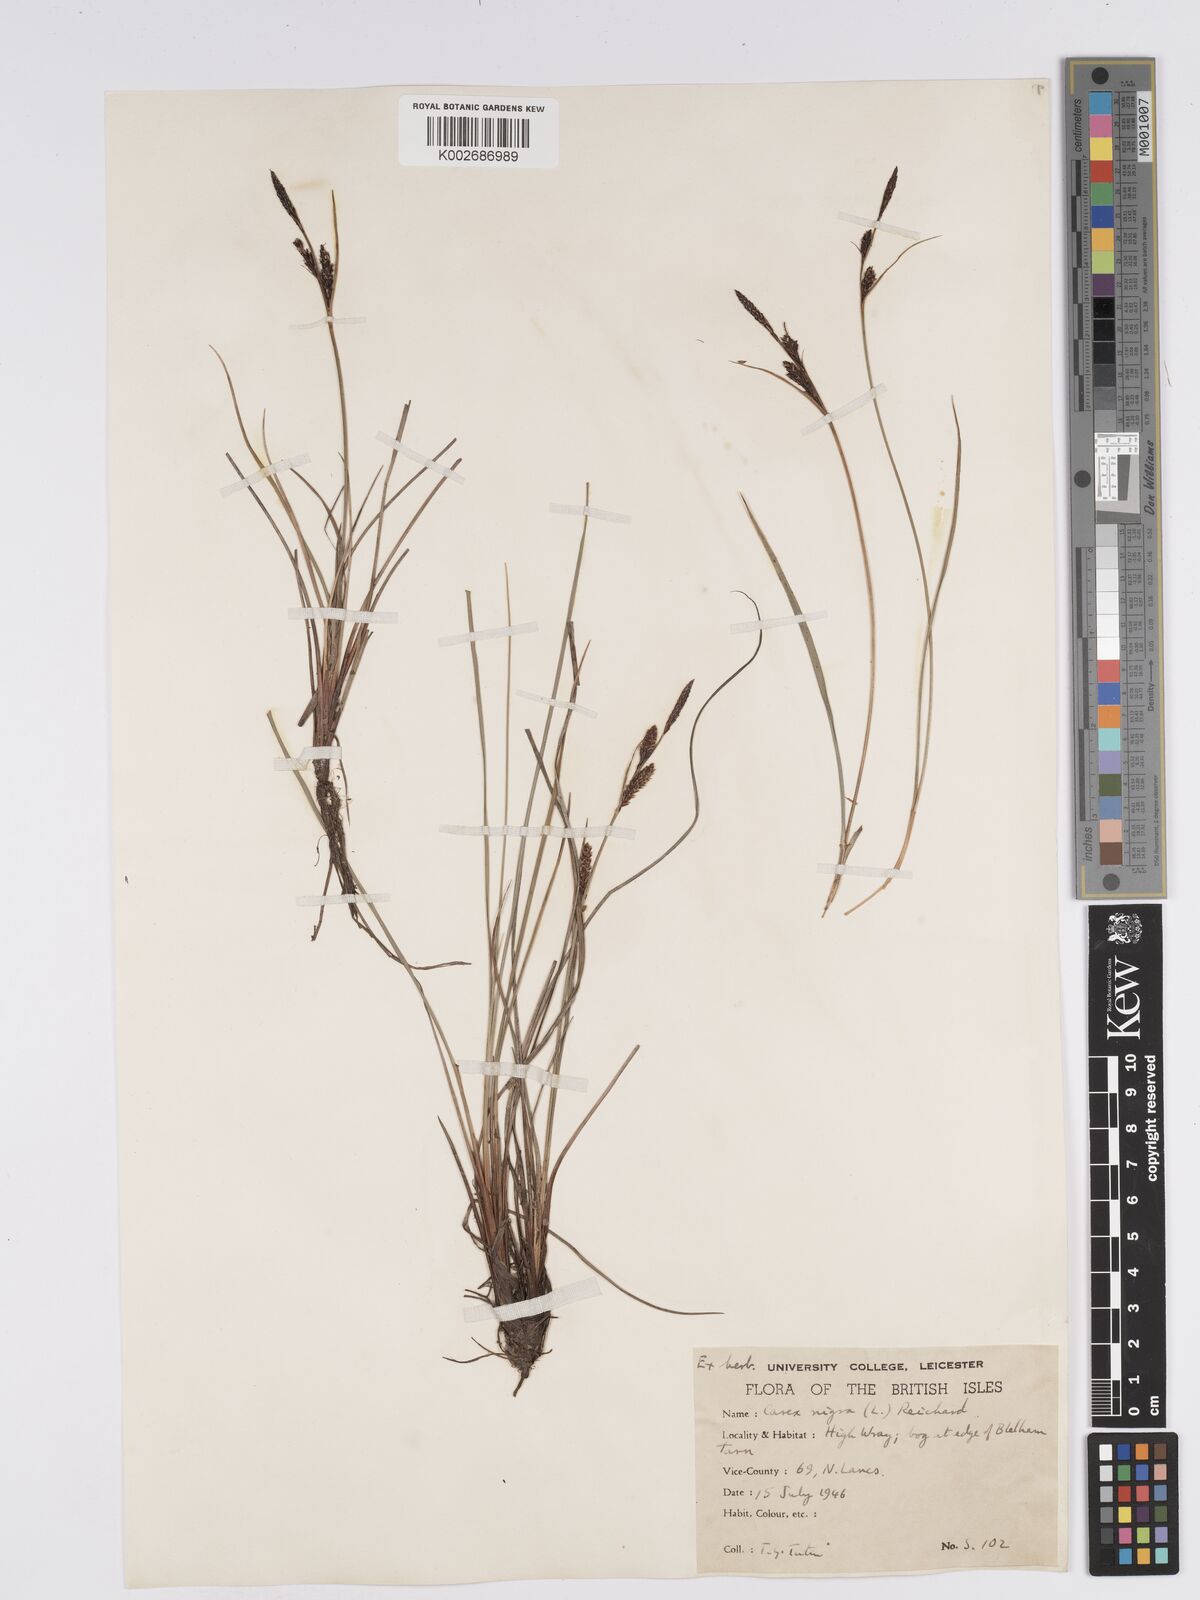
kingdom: Plantae
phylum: Tracheophyta
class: Liliopsida
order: Poales
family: Cyperaceae
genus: Carex
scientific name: Carex nigra
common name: Common sedge
